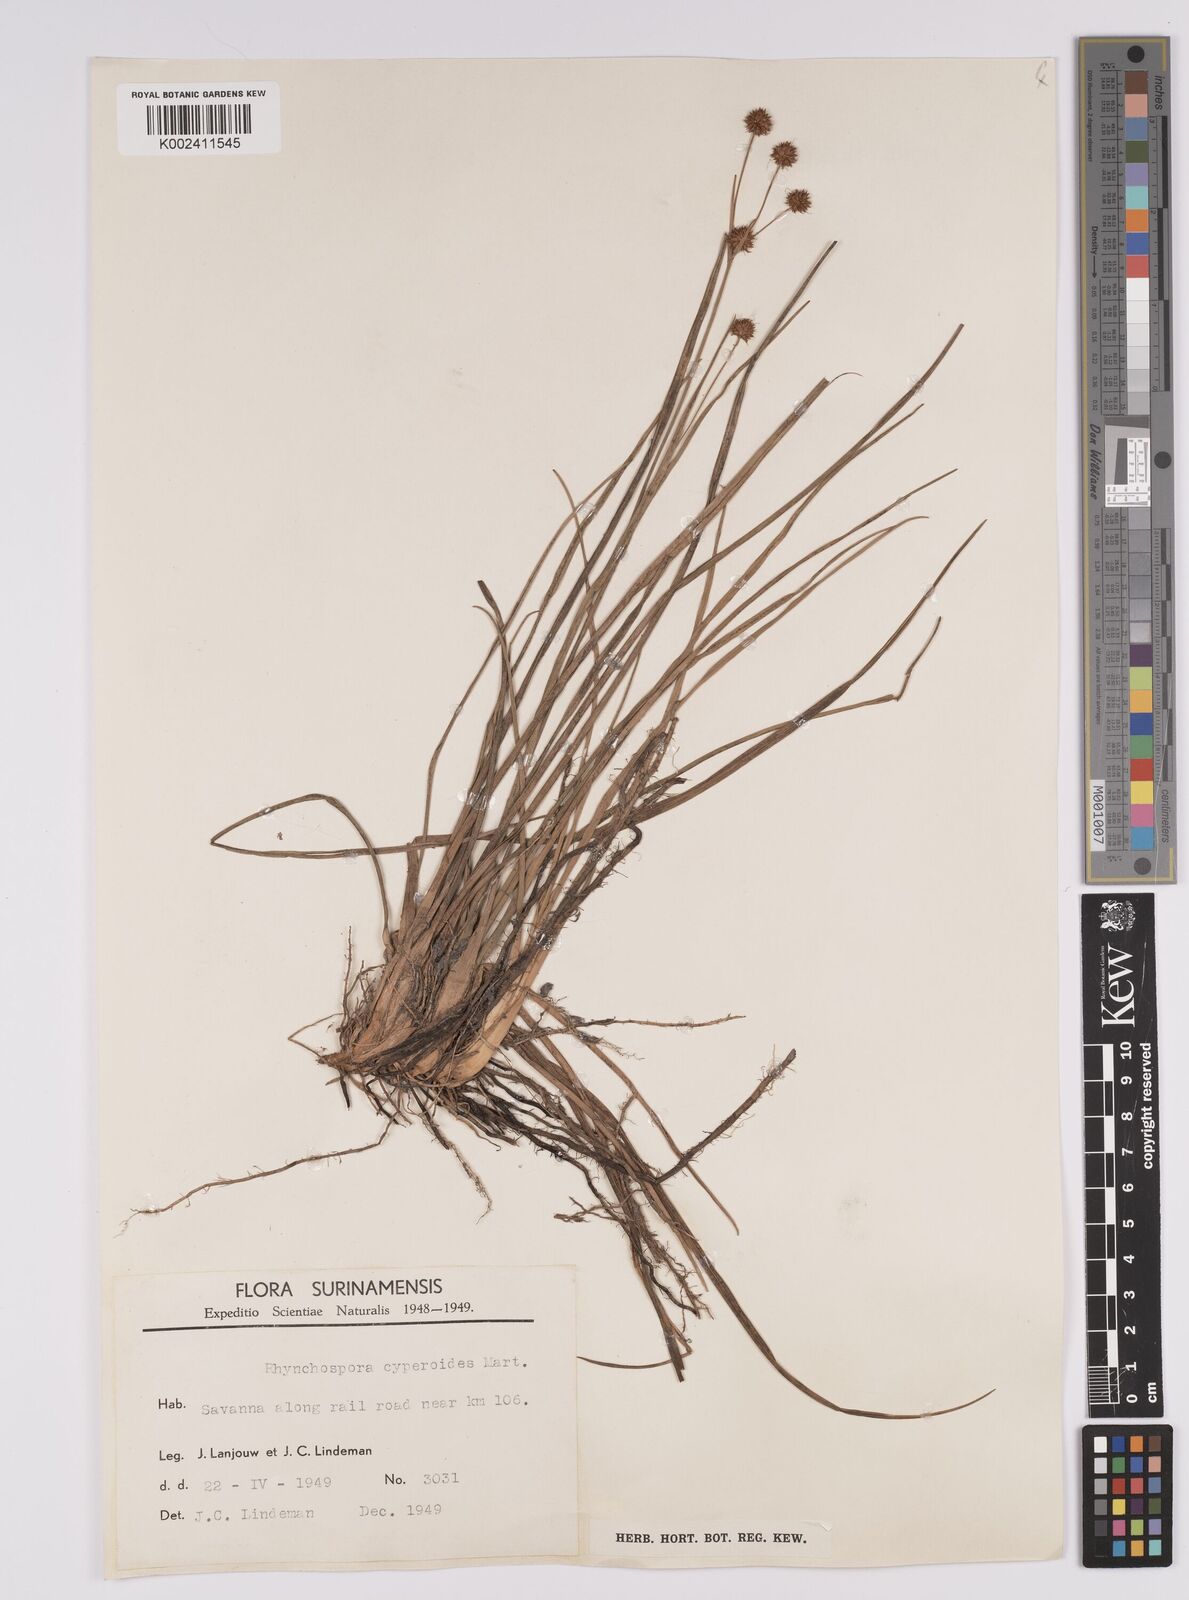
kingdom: Plantae
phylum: Tracheophyta
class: Liliopsida
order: Poales
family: Cyperaceae
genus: Rhynchospora
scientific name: Rhynchospora holoschoenoides
